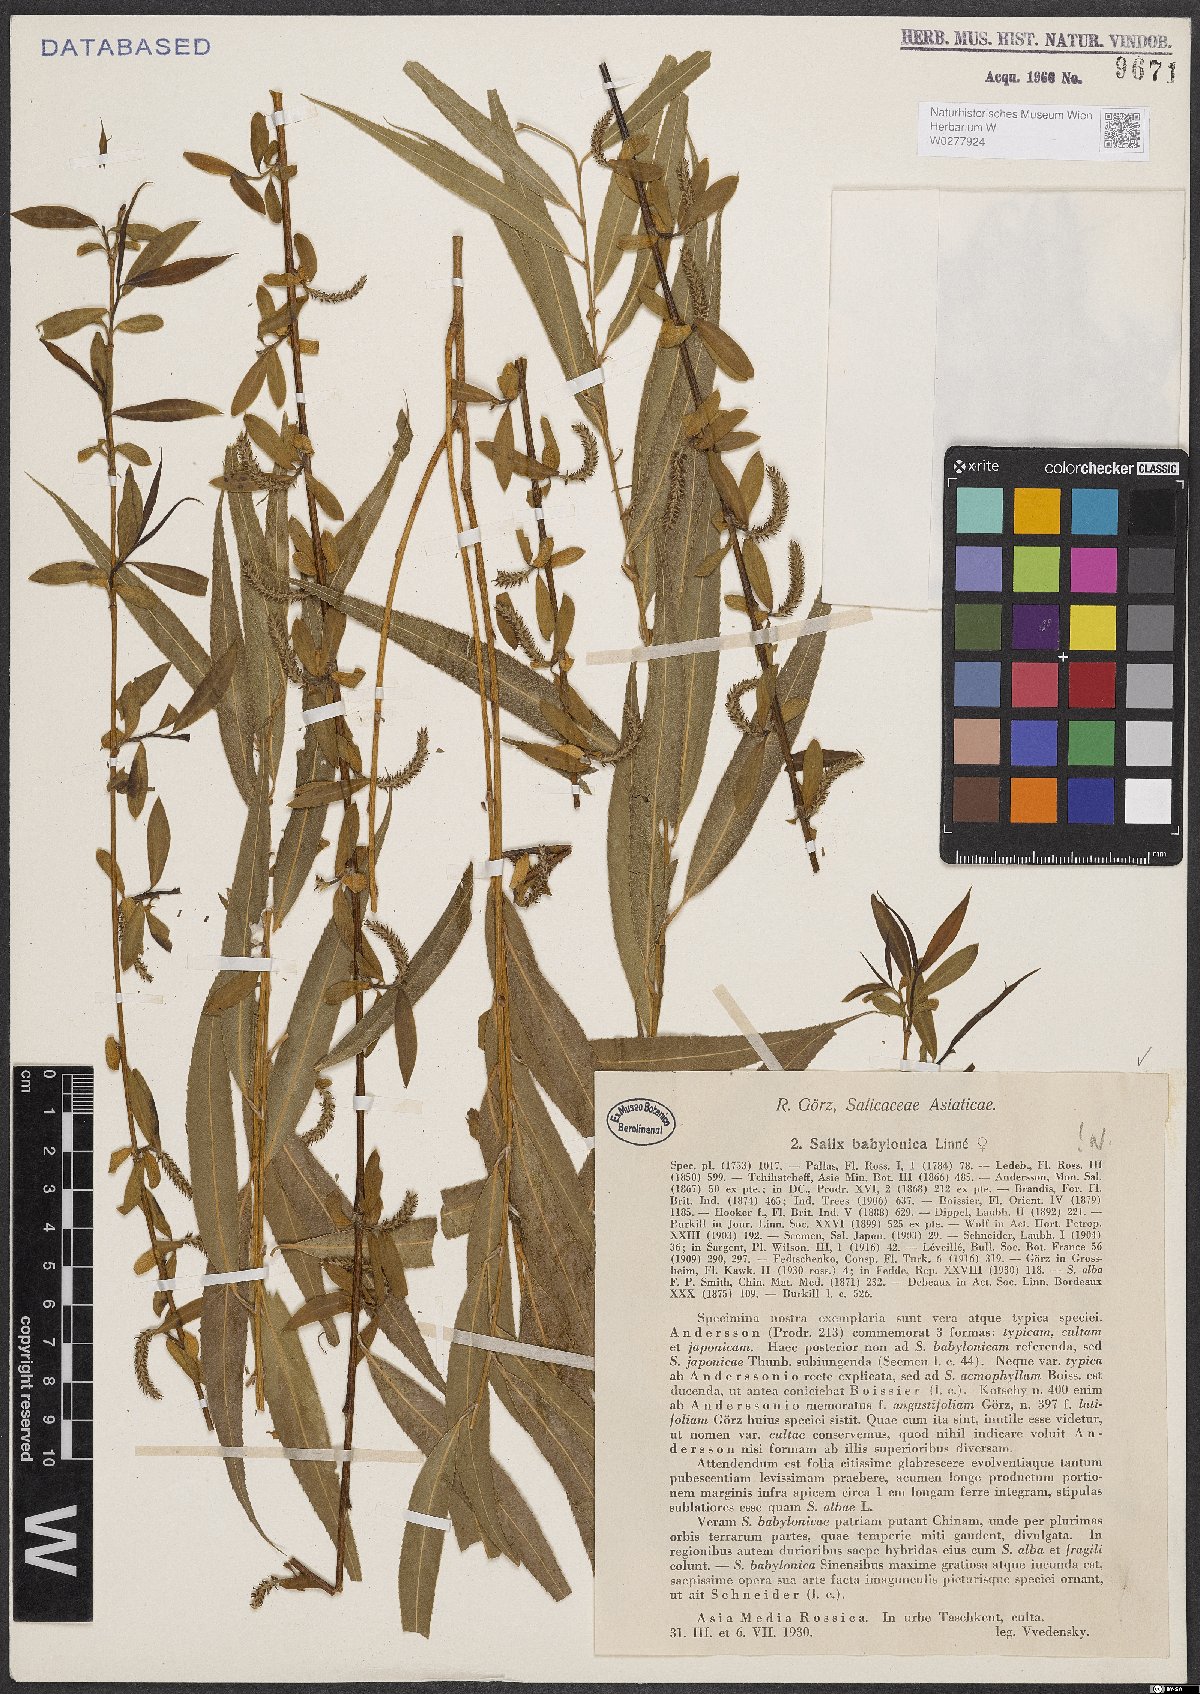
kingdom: Plantae
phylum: Tracheophyta
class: Magnoliopsida
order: Malpighiales
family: Salicaceae
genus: Salix
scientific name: Salix babylonica
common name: Weeping willow
